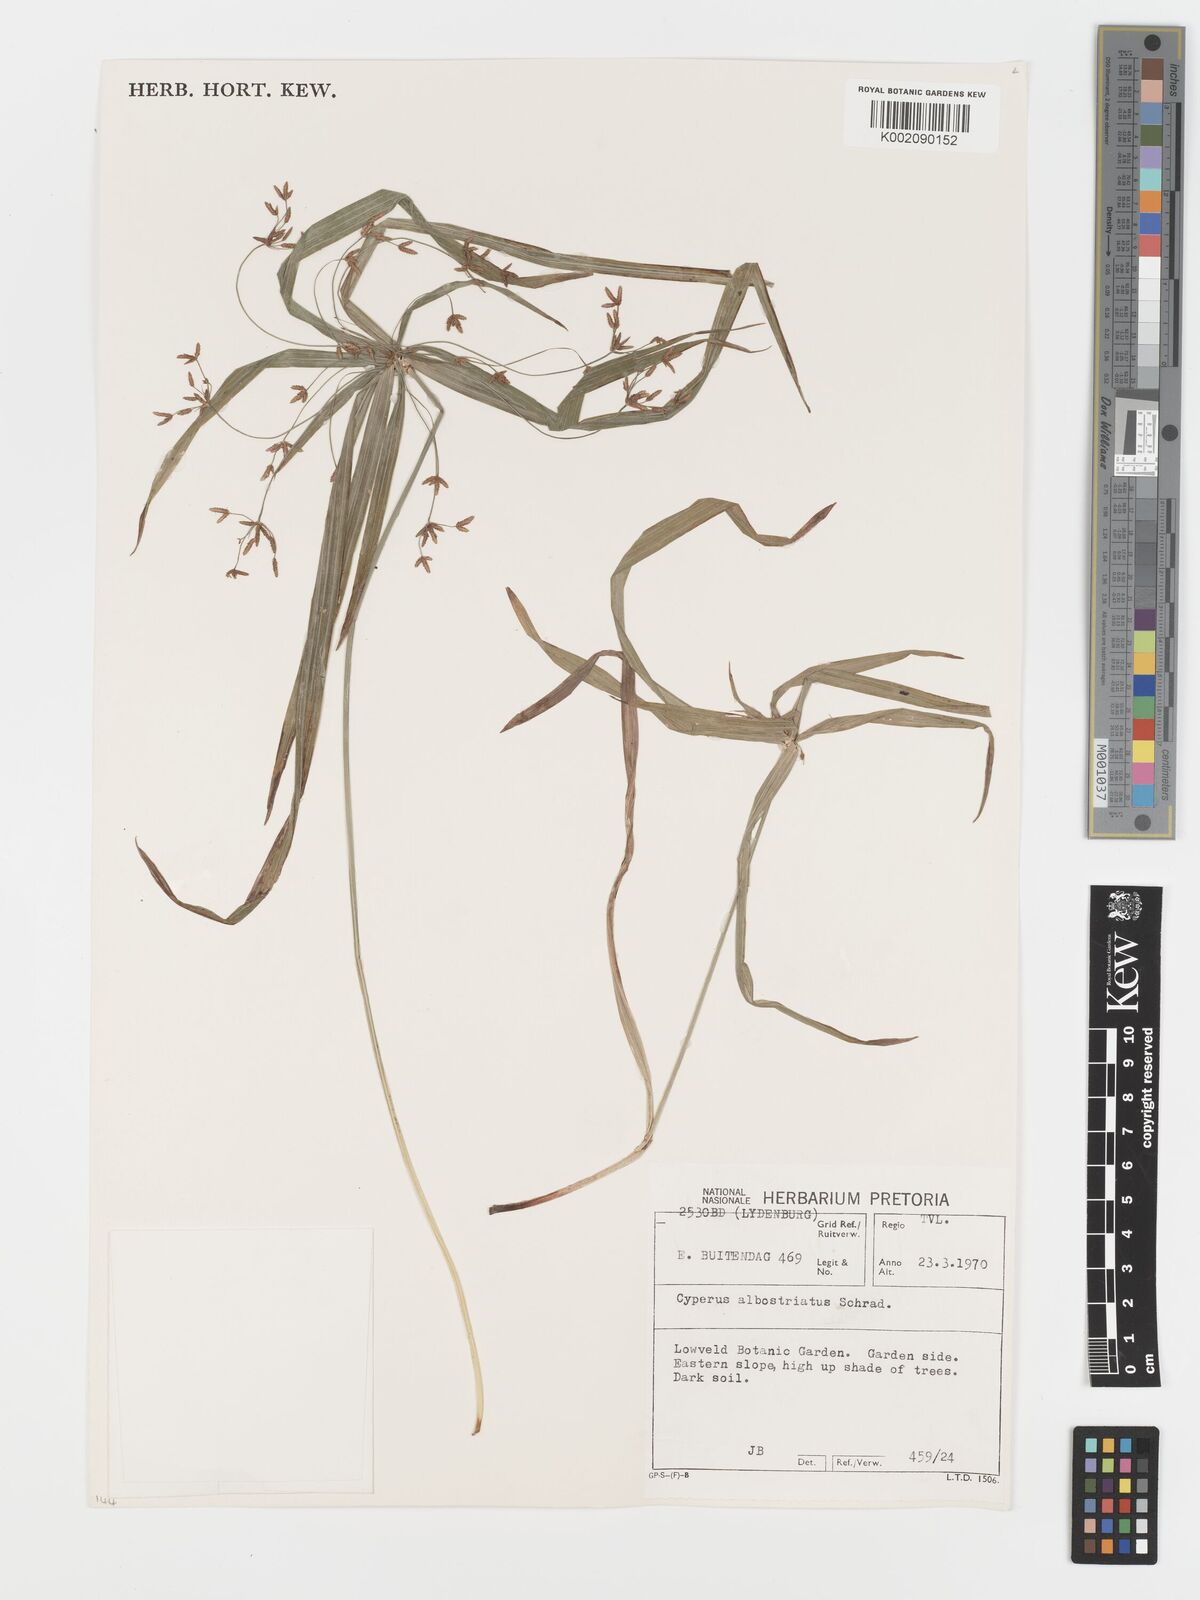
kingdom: Plantae
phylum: Tracheophyta
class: Liliopsida
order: Poales
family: Cyperaceae
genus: Cyperus
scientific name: Cyperus albostriatus
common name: Dwarf umbrella-grass
